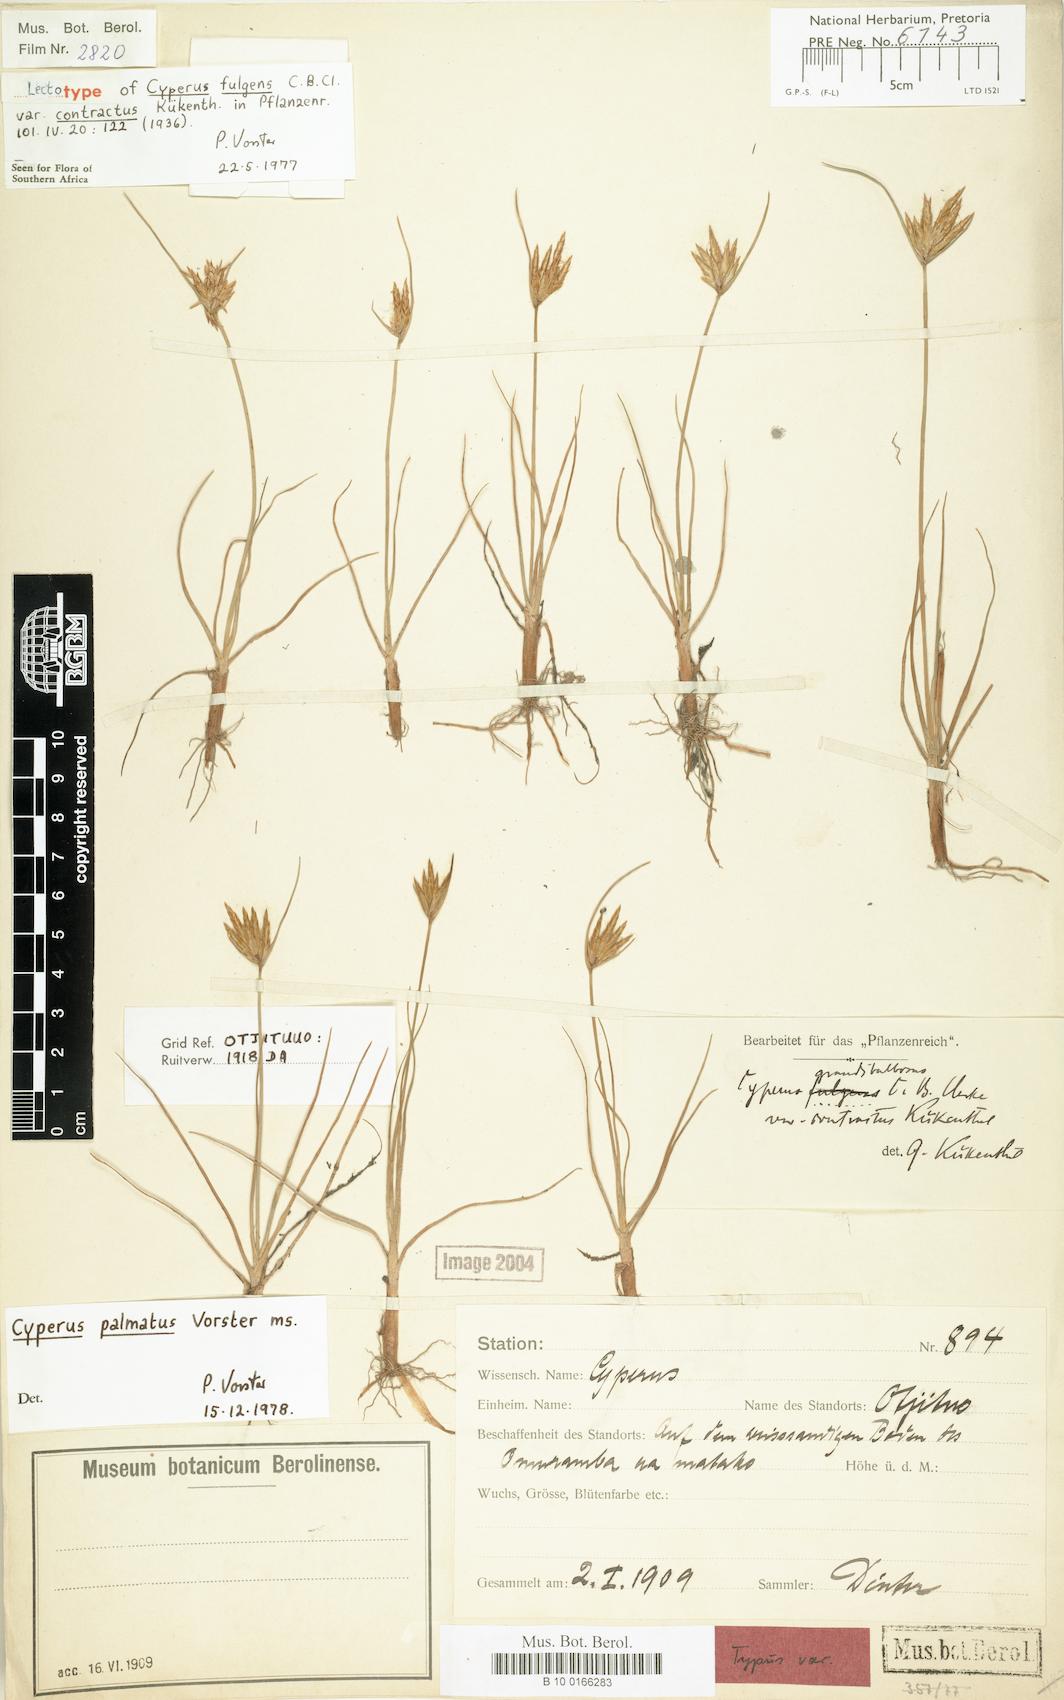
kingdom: Plantae
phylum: Tracheophyta
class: Liliopsida
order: Poales
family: Cyperaceae
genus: Cyperus
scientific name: Cyperus palmatus
